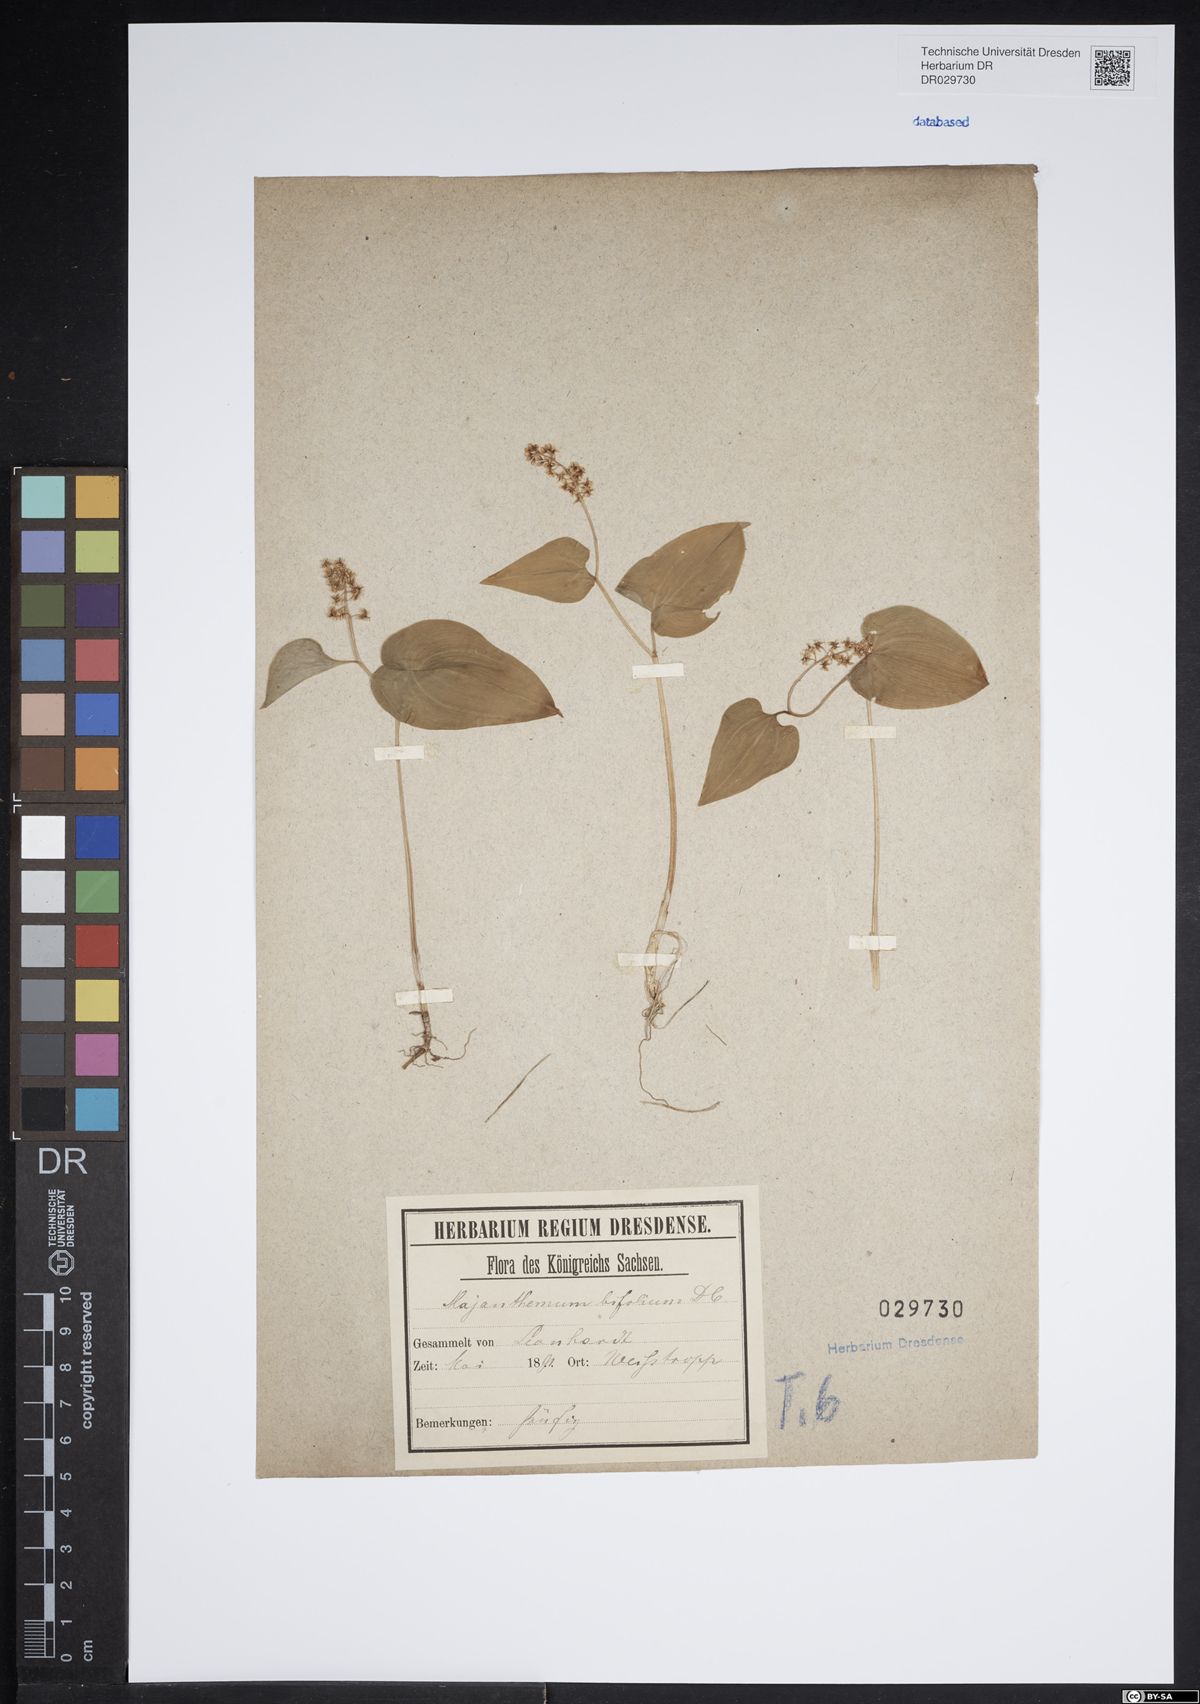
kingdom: Plantae
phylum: Tracheophyta
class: Liliopsida
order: Asparagales
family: Asparagaceae
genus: Maianthemum
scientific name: Maianthemum bifolium
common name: May lily
